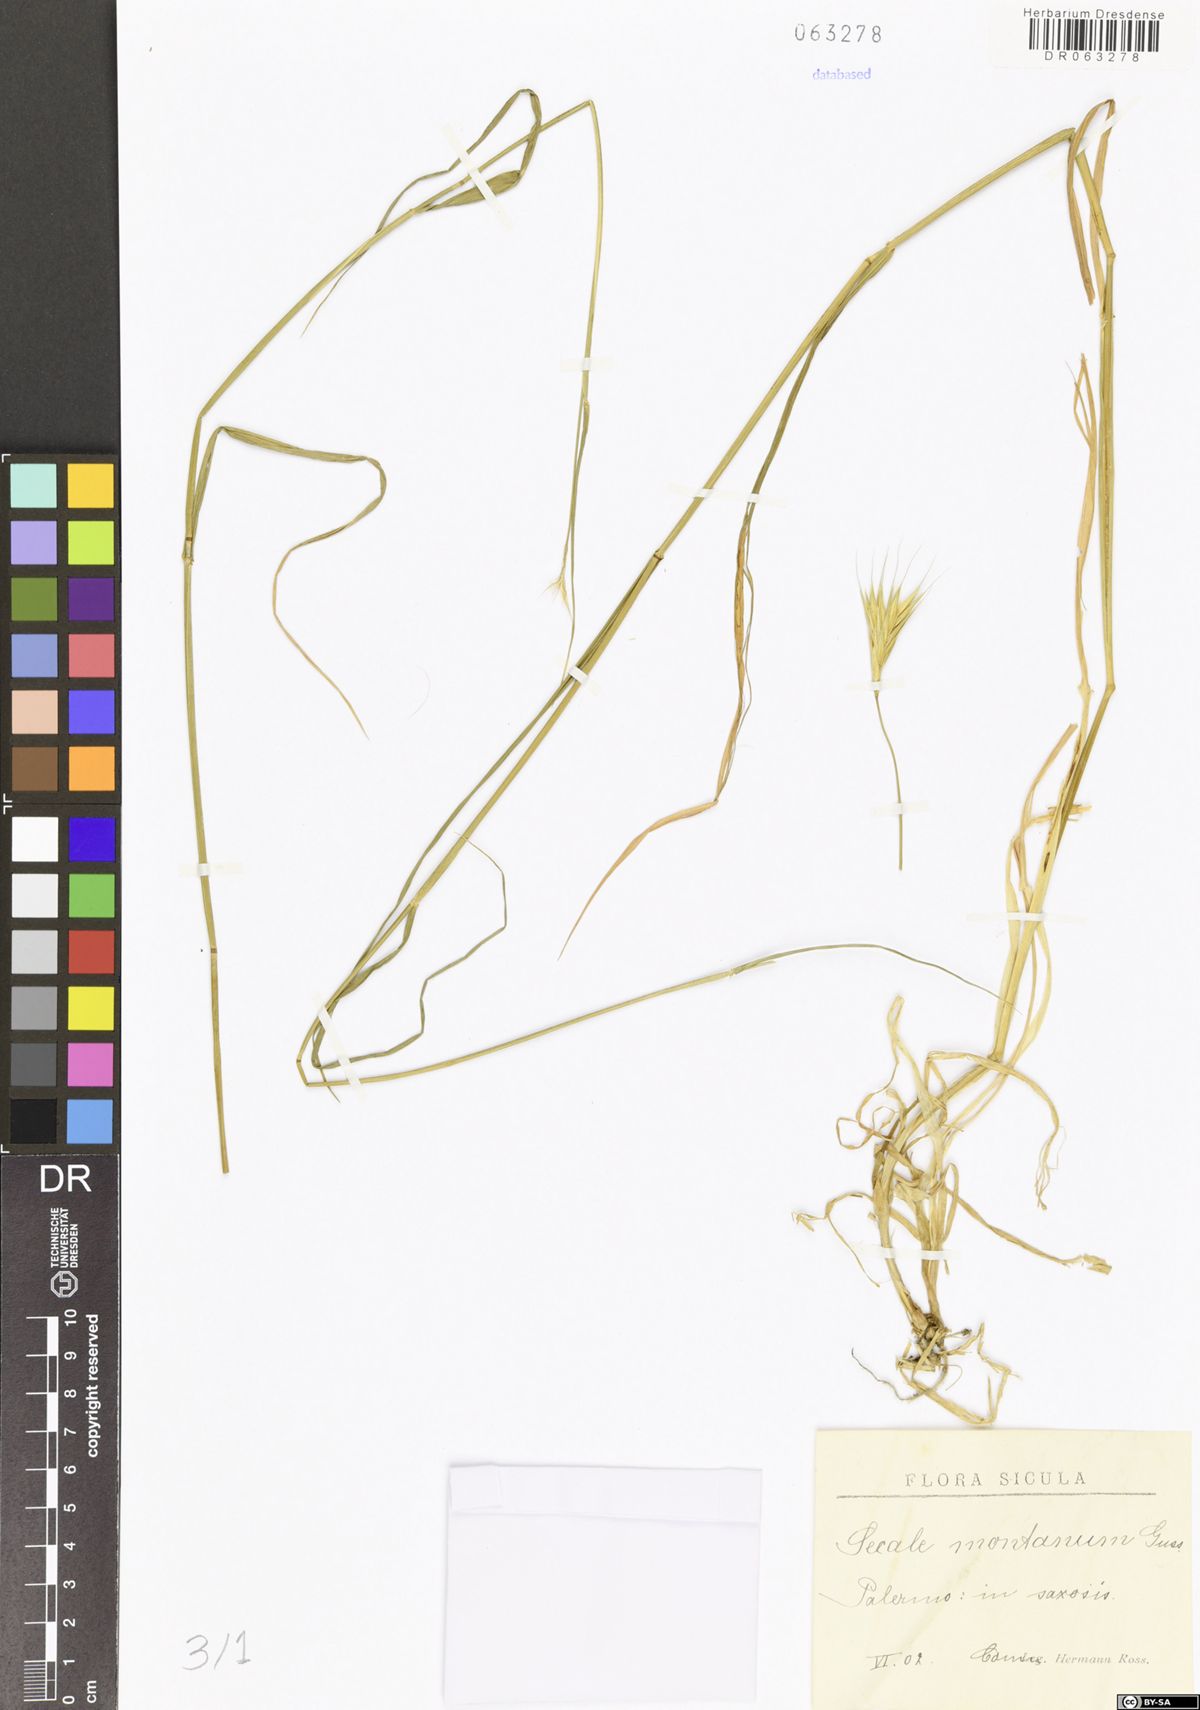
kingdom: Plantae
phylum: Tracheophyta
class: Liliopsida
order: Poales
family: Poaceae
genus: Secale
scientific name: Secale strictum
